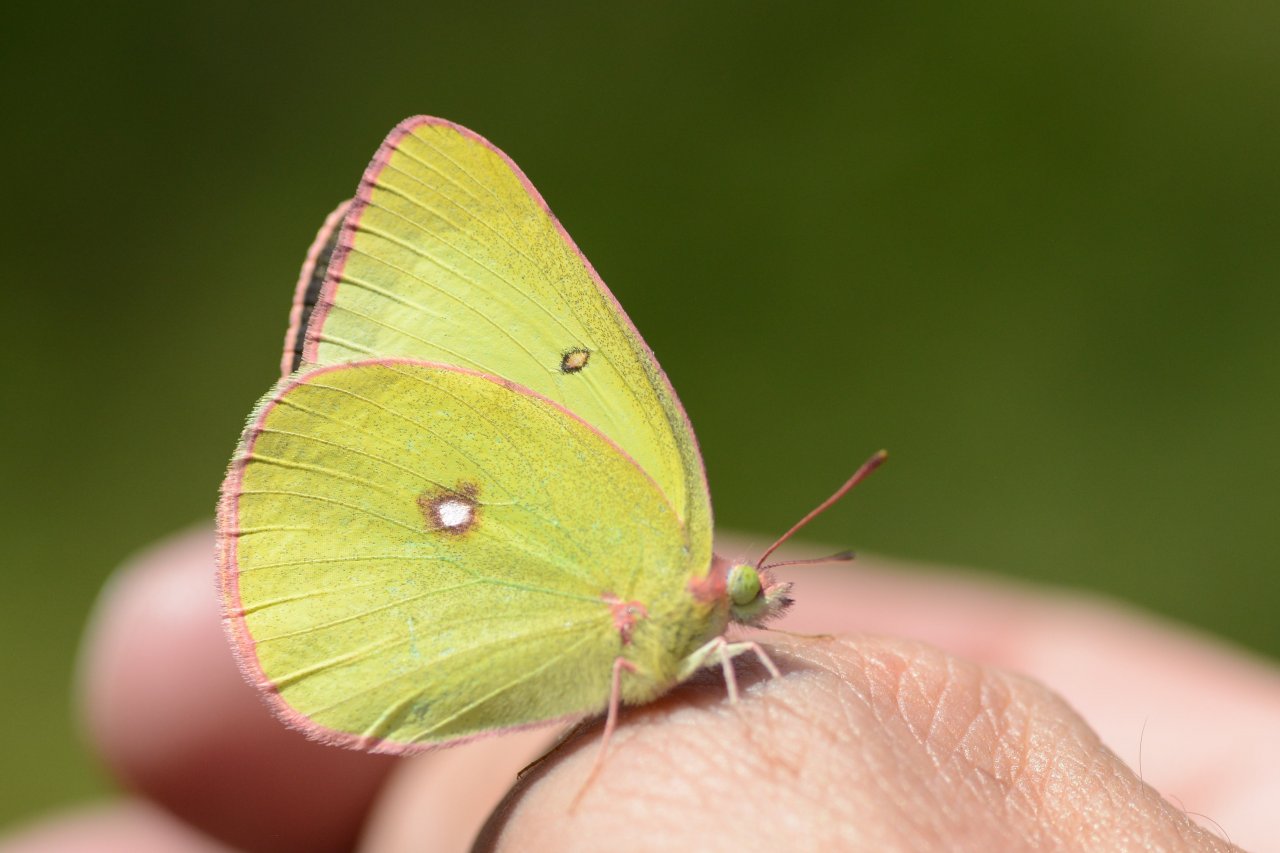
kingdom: Animalia
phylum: Arthropoda
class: Insecta
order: Lepidoptera
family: Pieridae
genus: Colias
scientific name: Colias interior
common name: Pink-edged Sulphur
